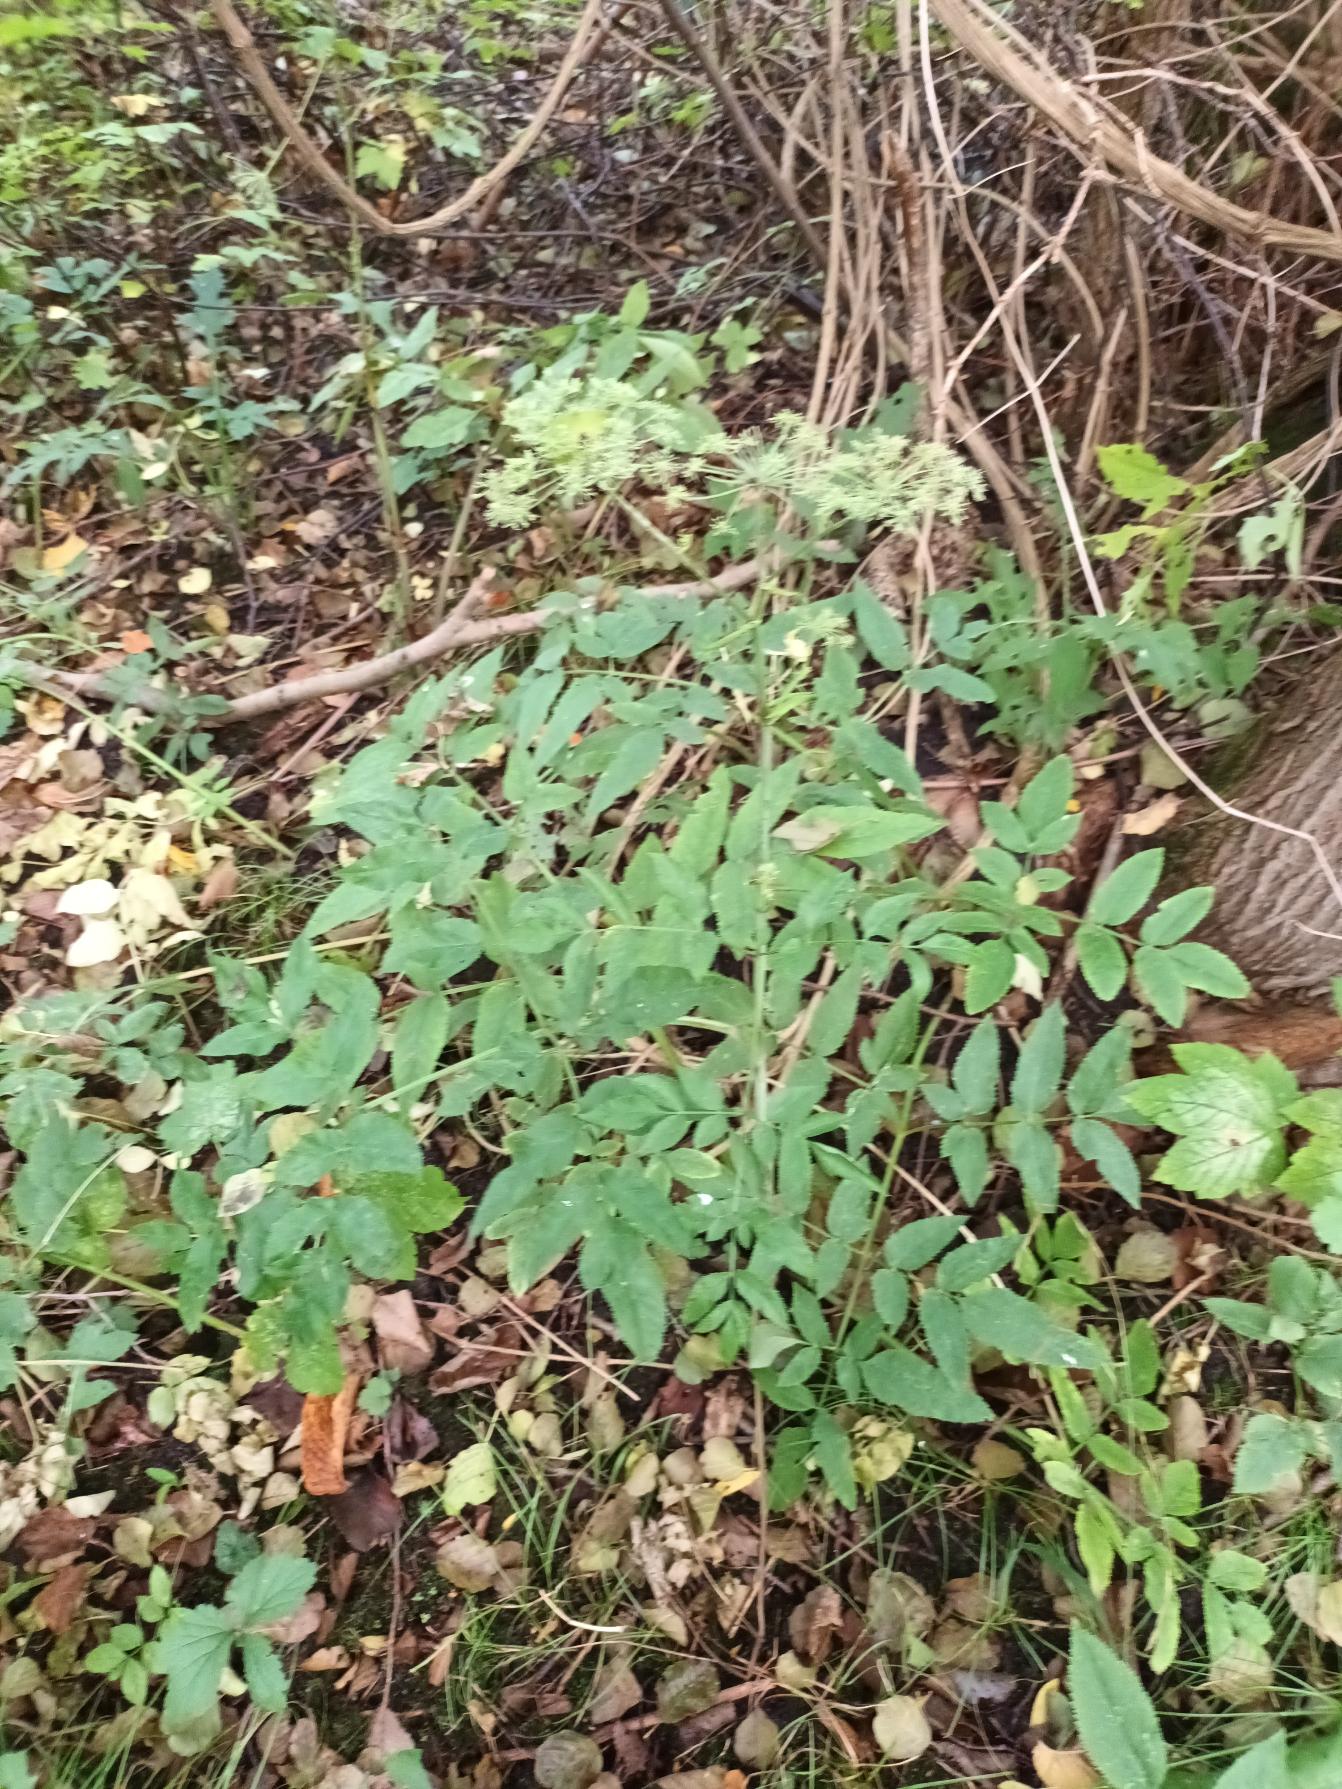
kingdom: Plantae
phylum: Tracheophyta
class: Magnoliopsida
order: Apiales
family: Apiaceae
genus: Angelica
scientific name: Angelica sylvestris
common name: Angelik
